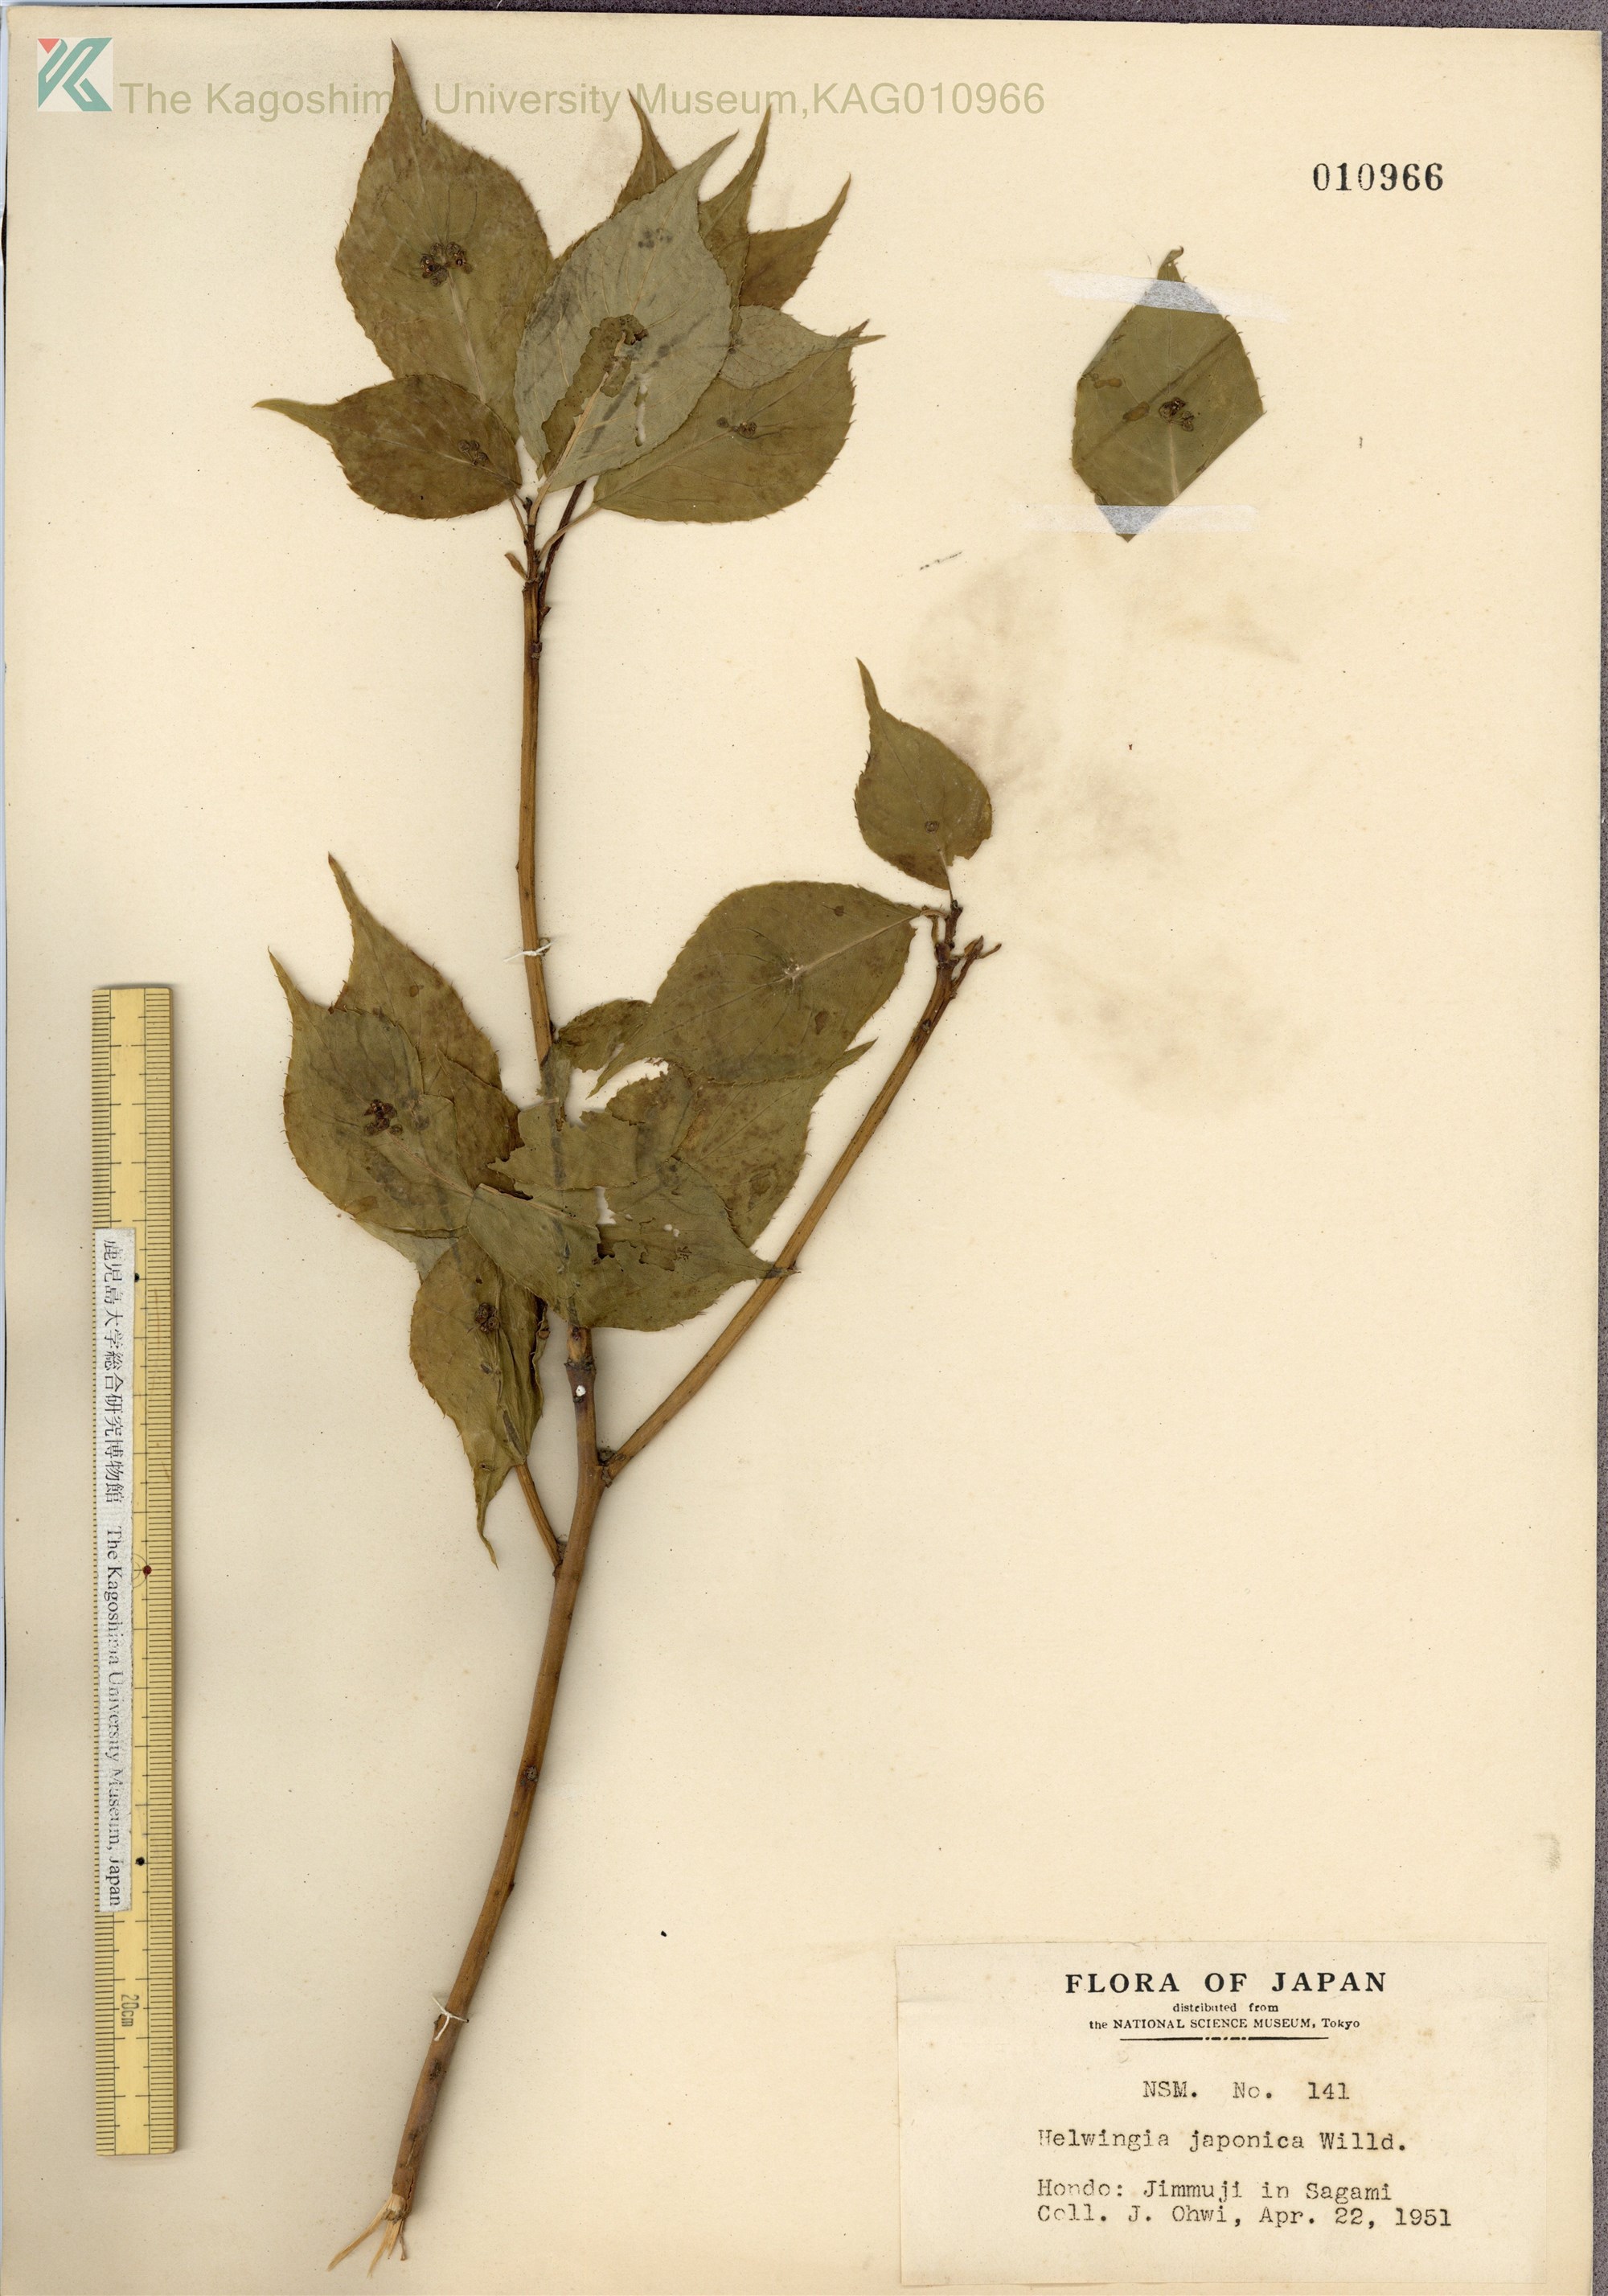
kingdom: Plantae
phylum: Tracheophyta
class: Magnoliopsida
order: Aquifoliales
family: Helwingiaceae
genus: Helwingia
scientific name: Helwingia japonica
